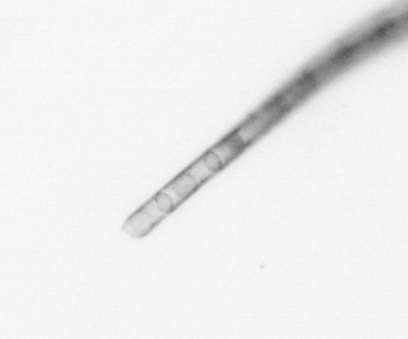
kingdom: Chromista
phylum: Ochrophyta
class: Bacillariophyceae
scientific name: Bacillariophyceae
